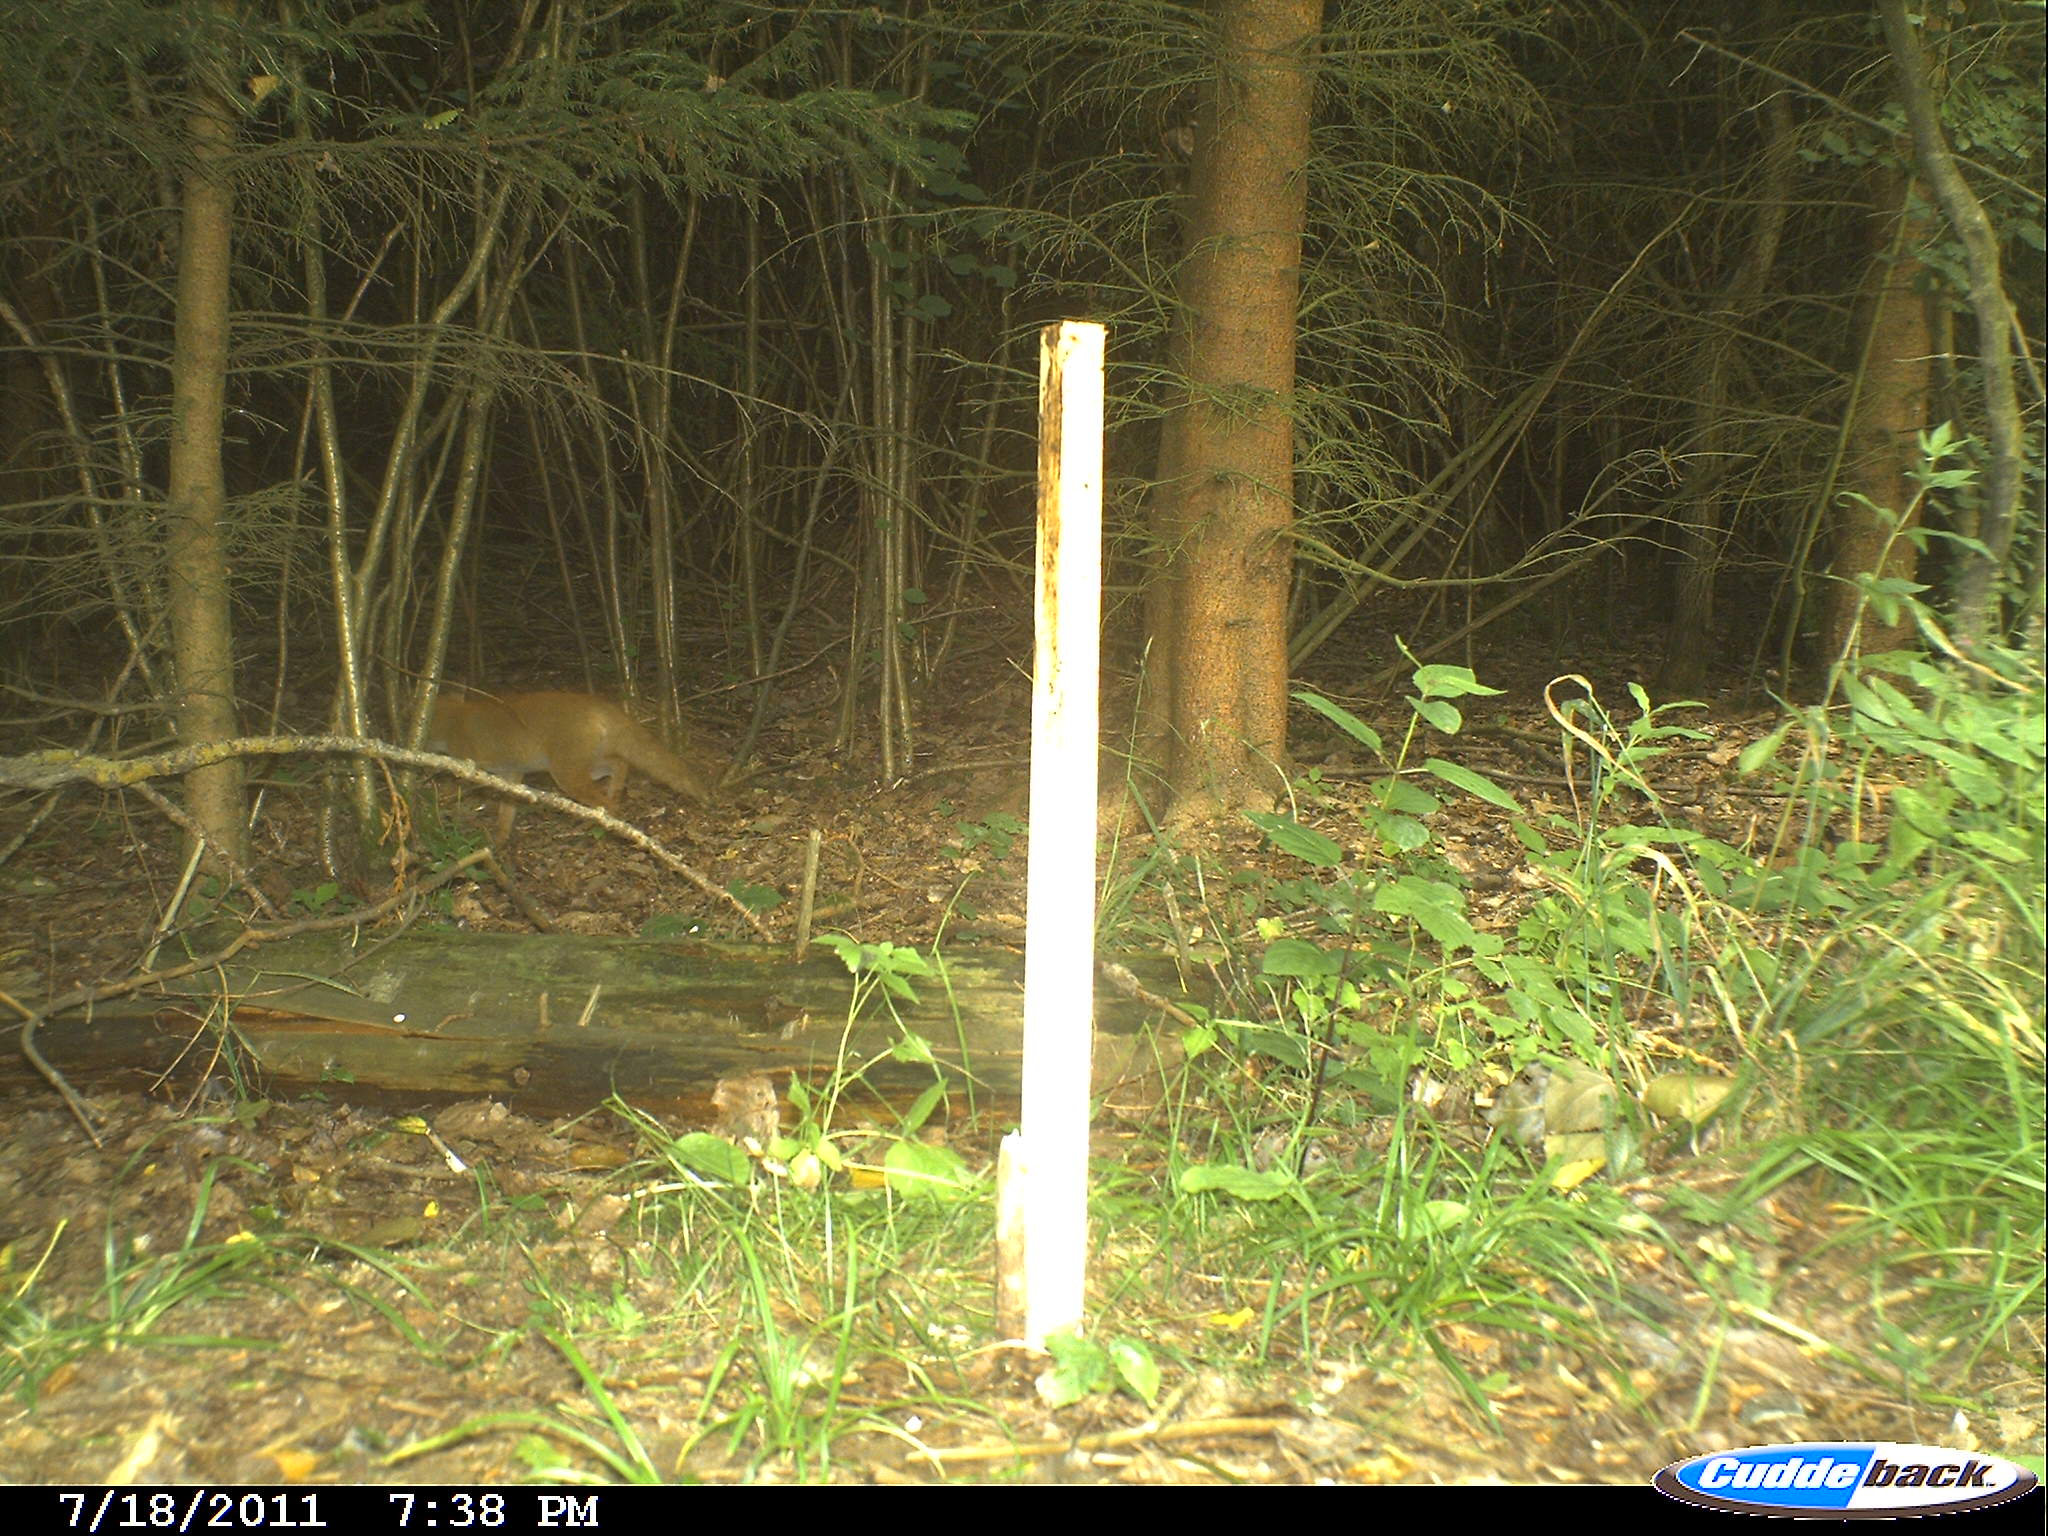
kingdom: Animalia
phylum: Chordata
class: Mammalia
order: Carnivora
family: Canidae
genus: Vulpes
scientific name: Vulpes vulpes
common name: Red fox
